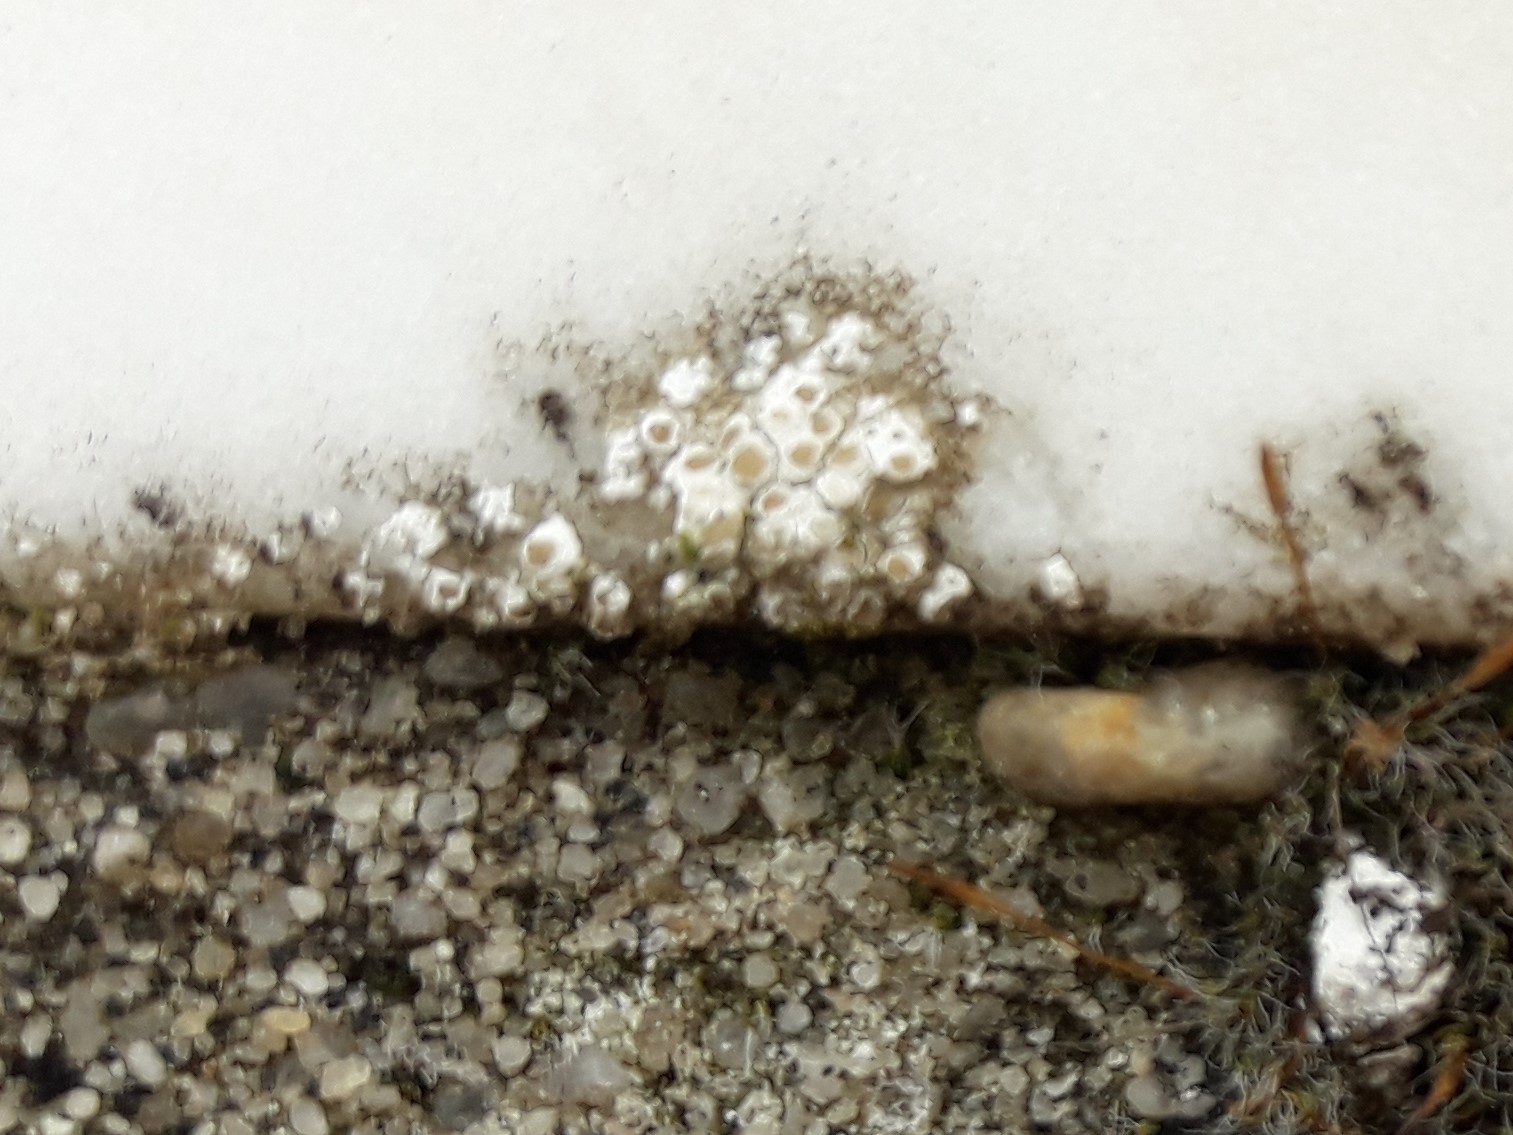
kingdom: Fungi
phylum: Ascomycota
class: Lecanoromycetes
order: Lecanorales
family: Lecanoraceae
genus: Polyozosia
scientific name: Polyozosia albescens
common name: cement-kantskivelav
